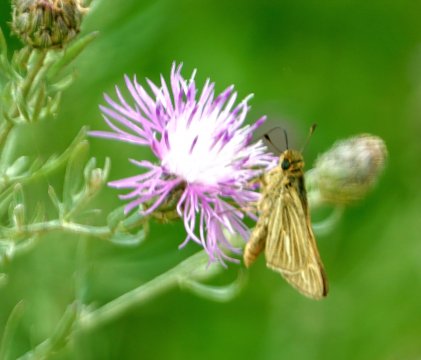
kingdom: Animalia
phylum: Arthropoda
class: Insecta
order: Lepidoptera
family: Hesperiidae
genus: Panoquina
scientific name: Panoquina panoquin
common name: Salt Marsh Skipper
